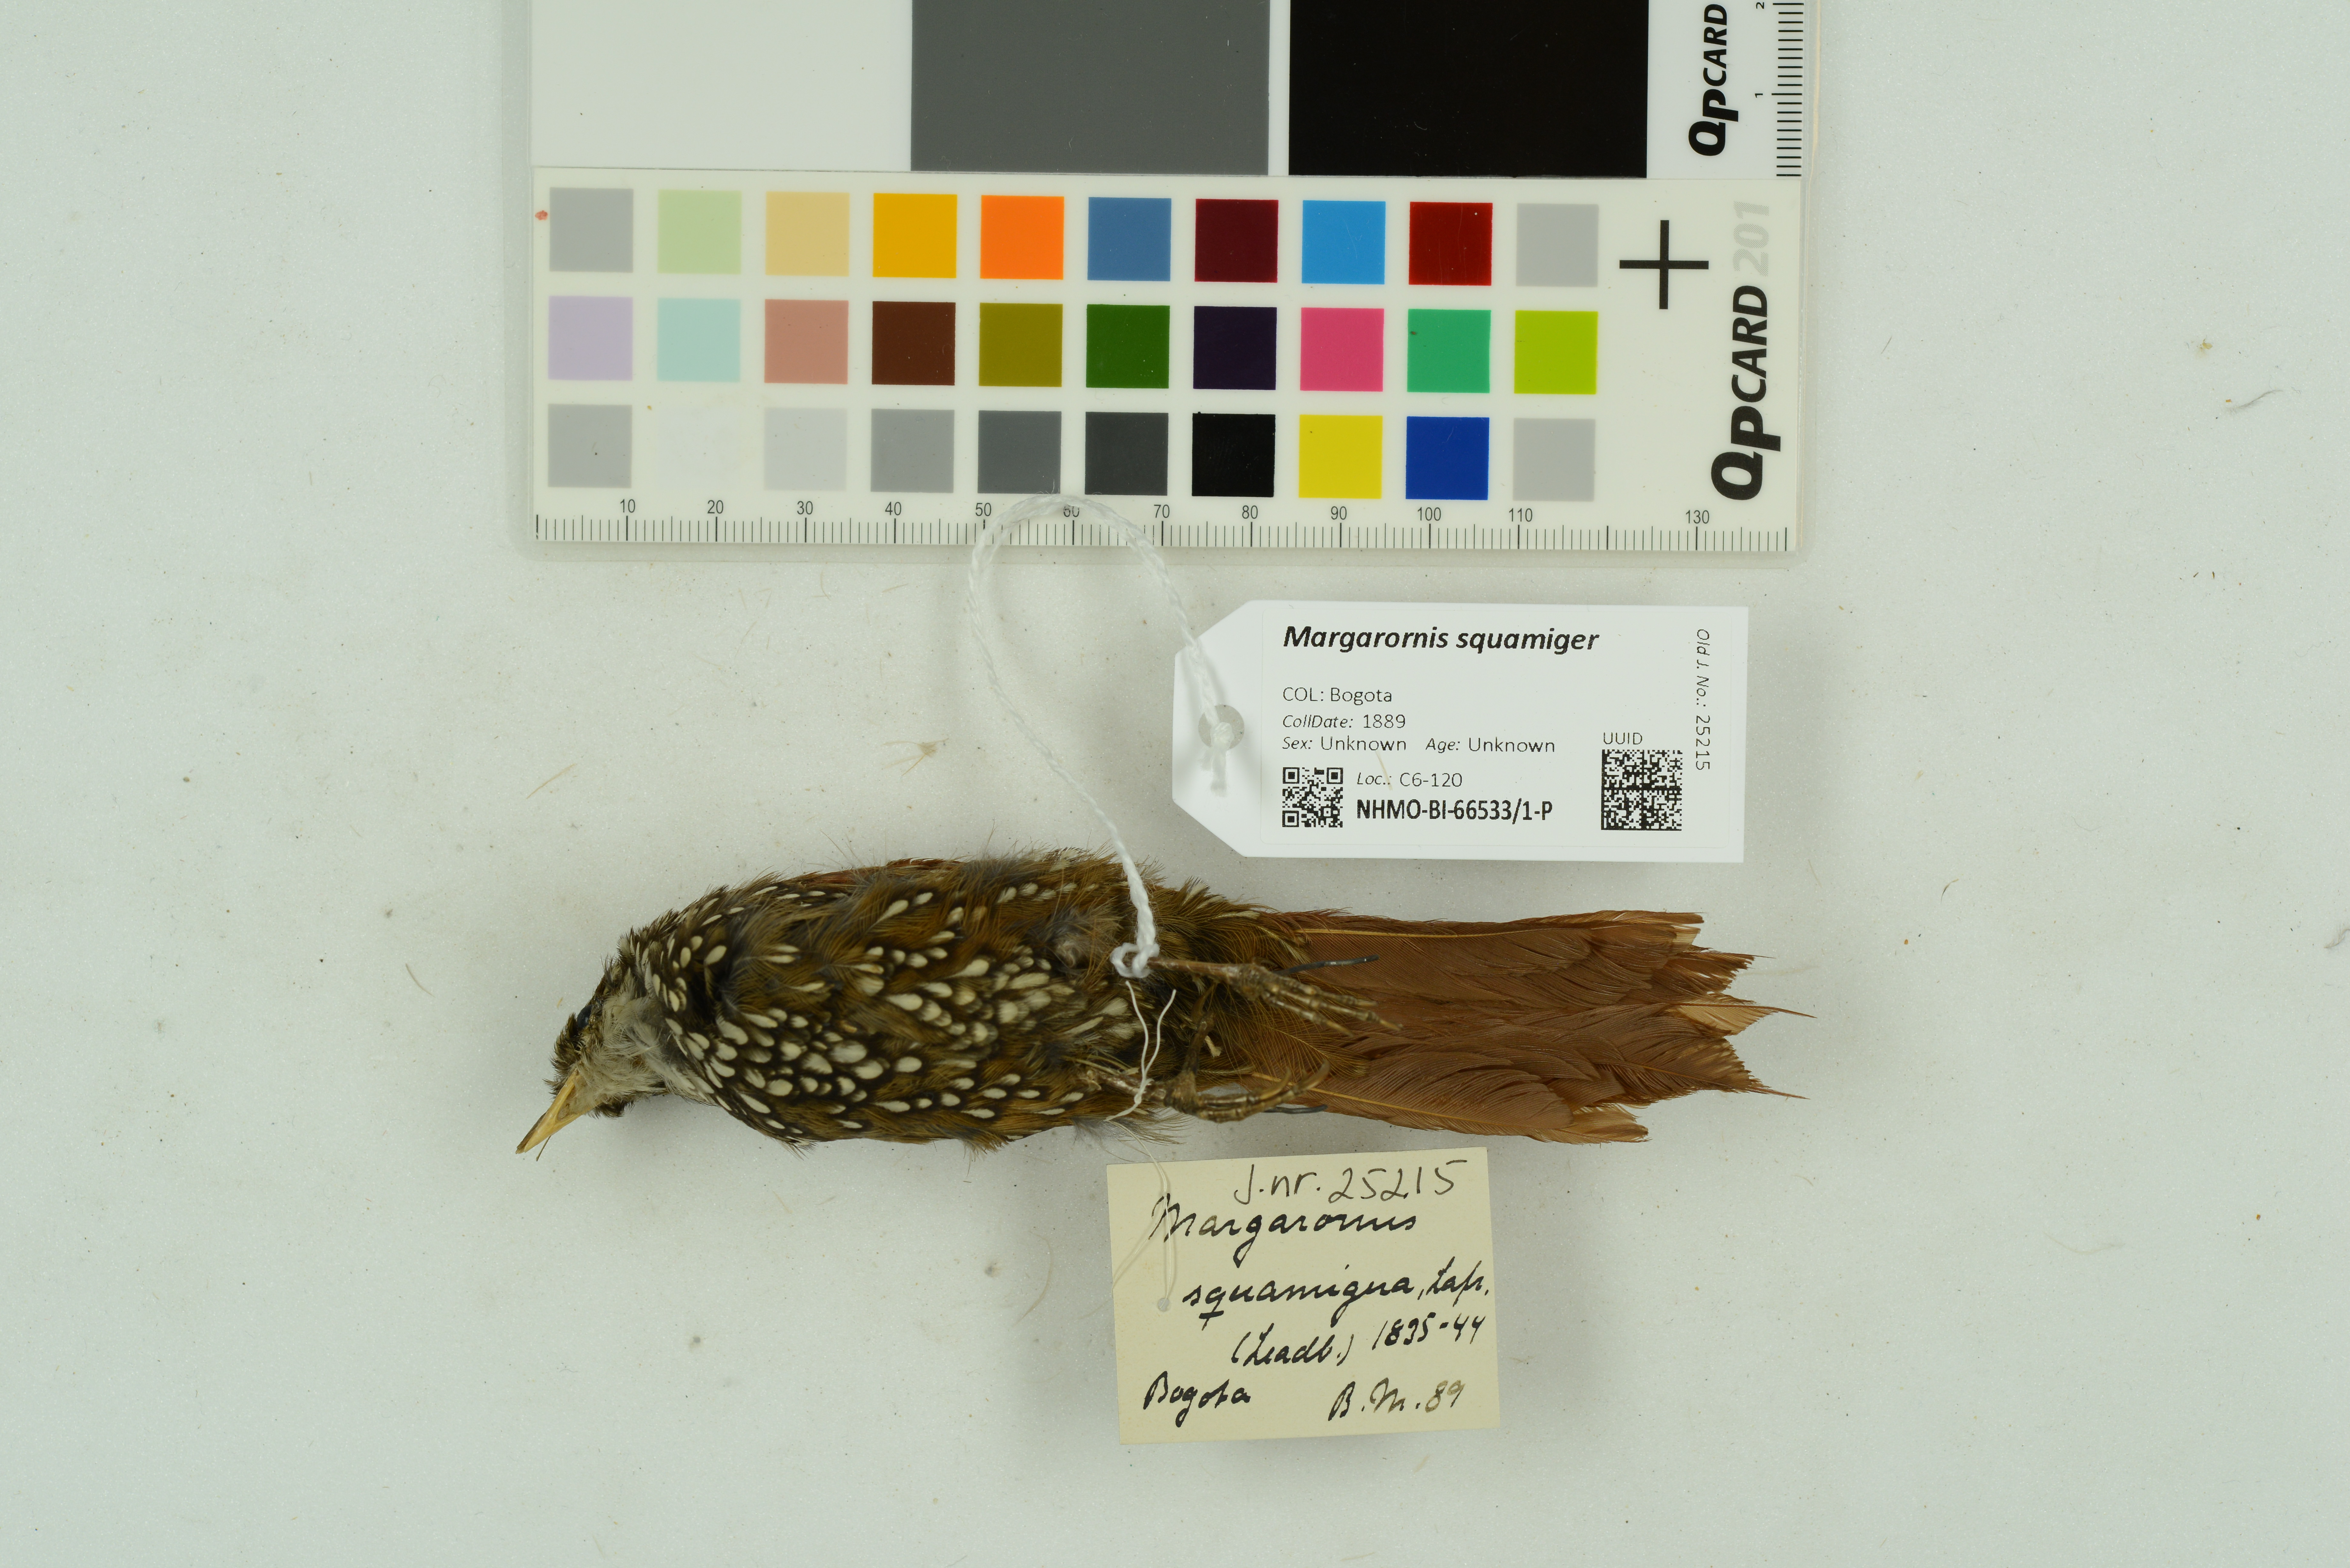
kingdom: Animalia
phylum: Chordata
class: Aves
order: Passeriformes
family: Furnariidae
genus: Margarornis
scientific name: Margarornis squamiger
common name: Pearled treerunner
